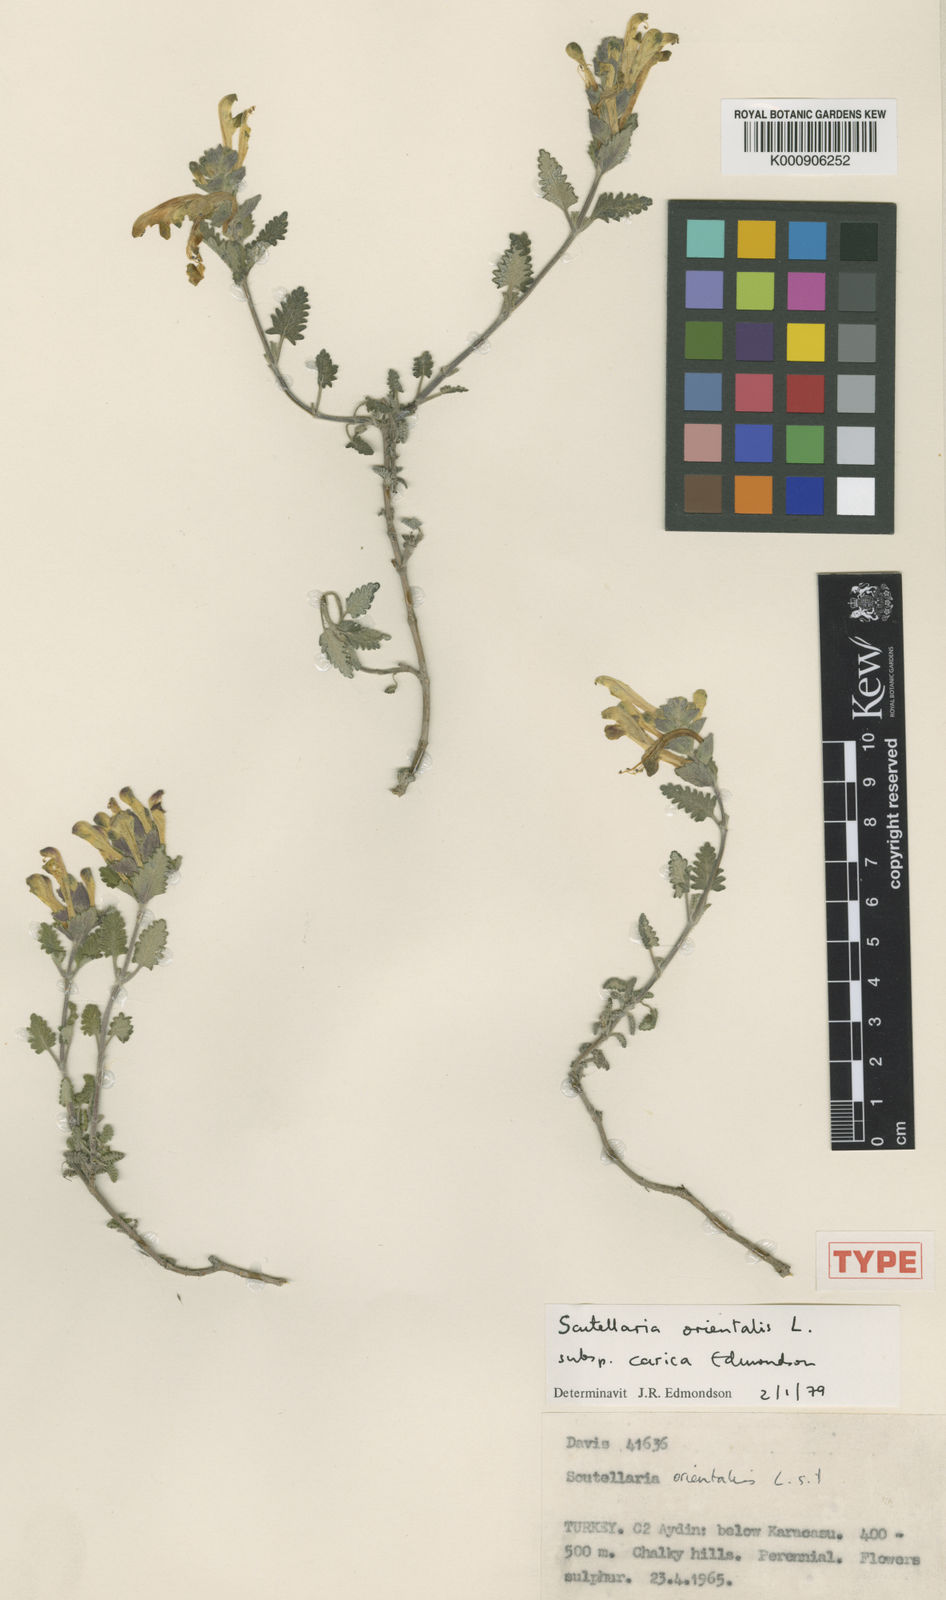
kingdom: Plantae
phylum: Tracheophyta
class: Magnoliopsida
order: Lamiales
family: Lamiaceae
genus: Scutellaria
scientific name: Scutellaria orientalis
